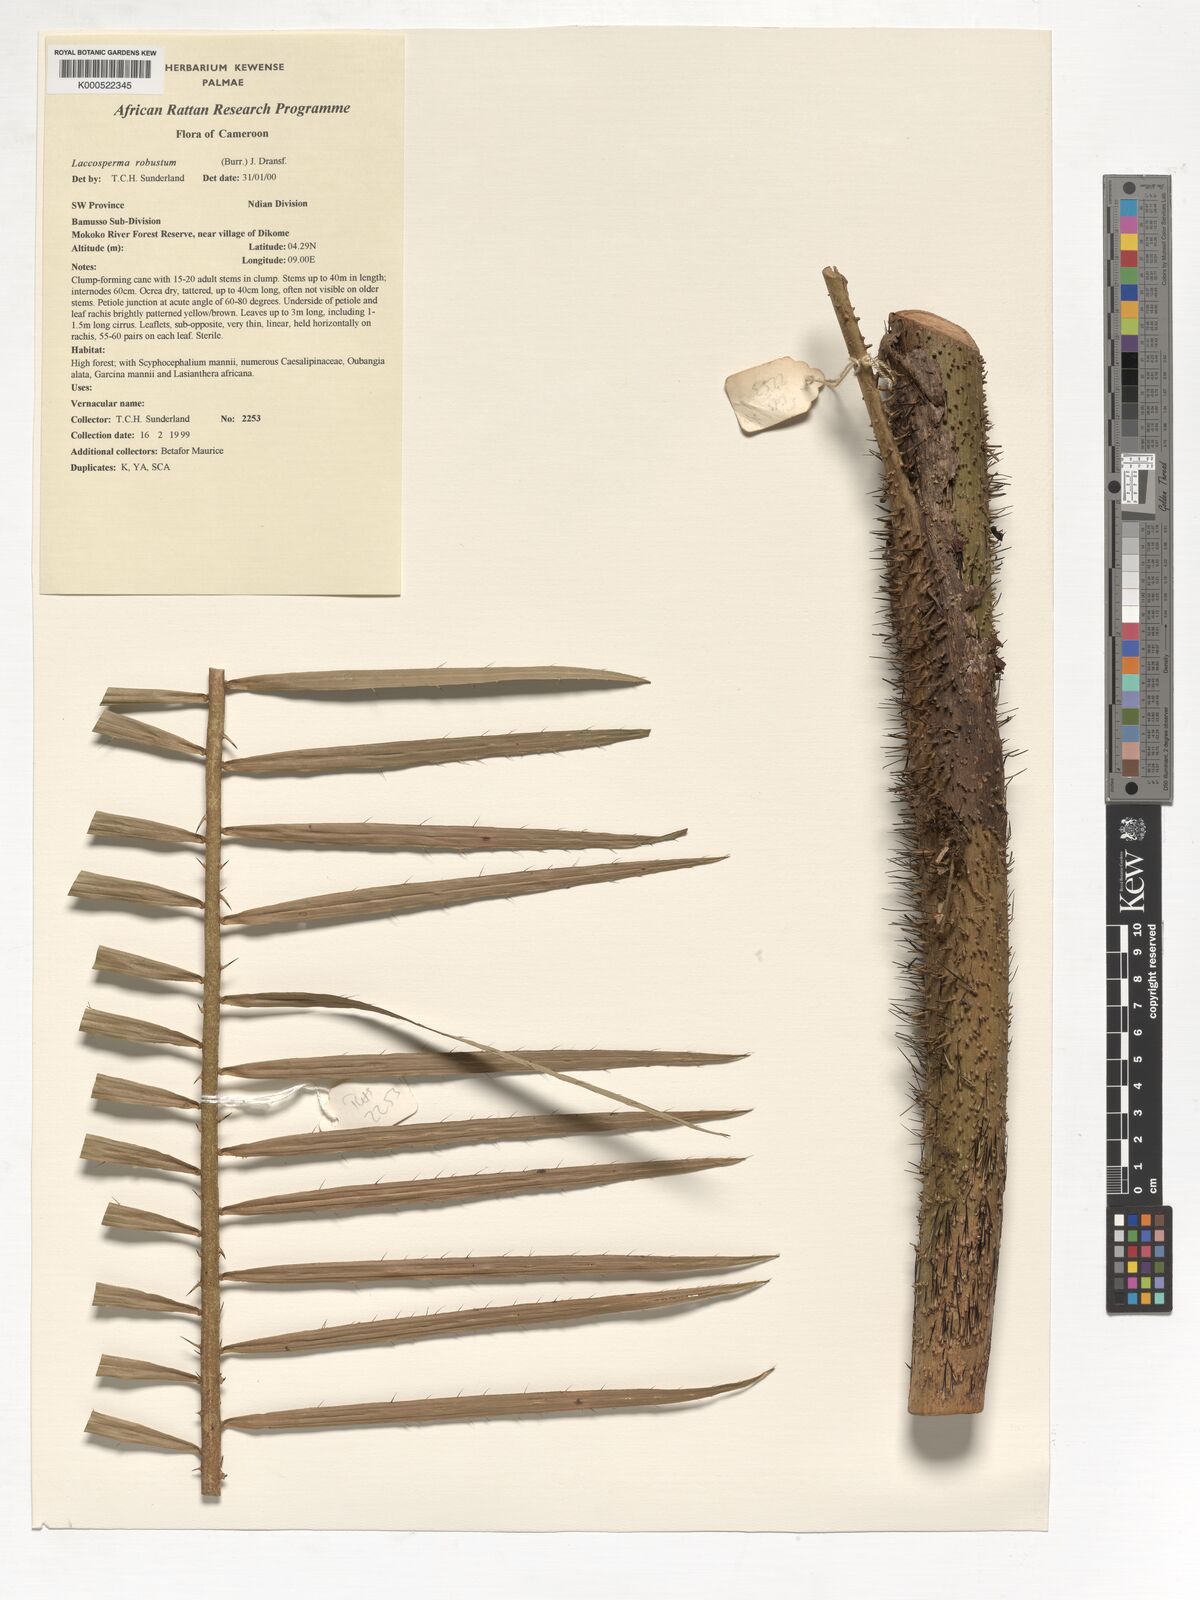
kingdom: Plantae
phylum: Tracheophyta
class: Liliopsida
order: Arecales
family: Arecaceae
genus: Laccosperma
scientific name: Laccosperma robustum
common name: Rattan
